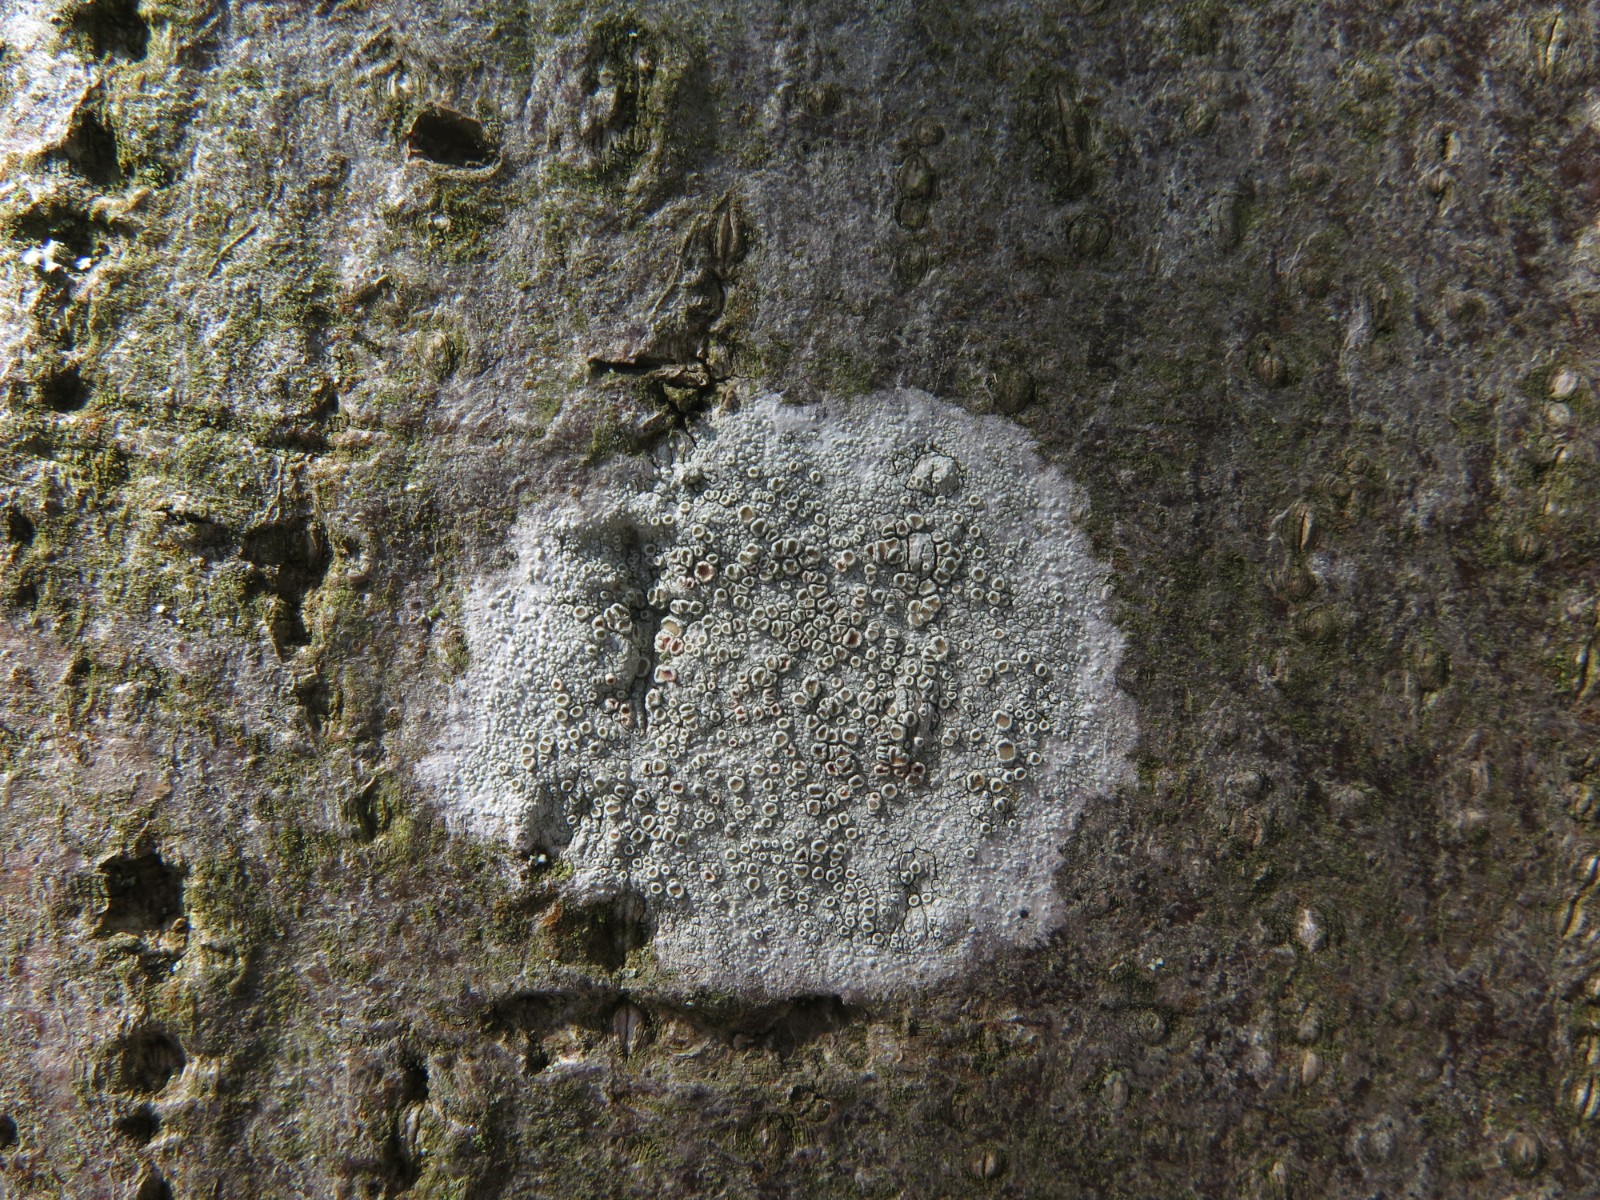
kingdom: Fungi
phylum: Ascomycota
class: Lecanoromycetes
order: Lecanorales
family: Lecanoraceae
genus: Lecanora
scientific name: Lecanora chlarotera
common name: brun kantskivelav
